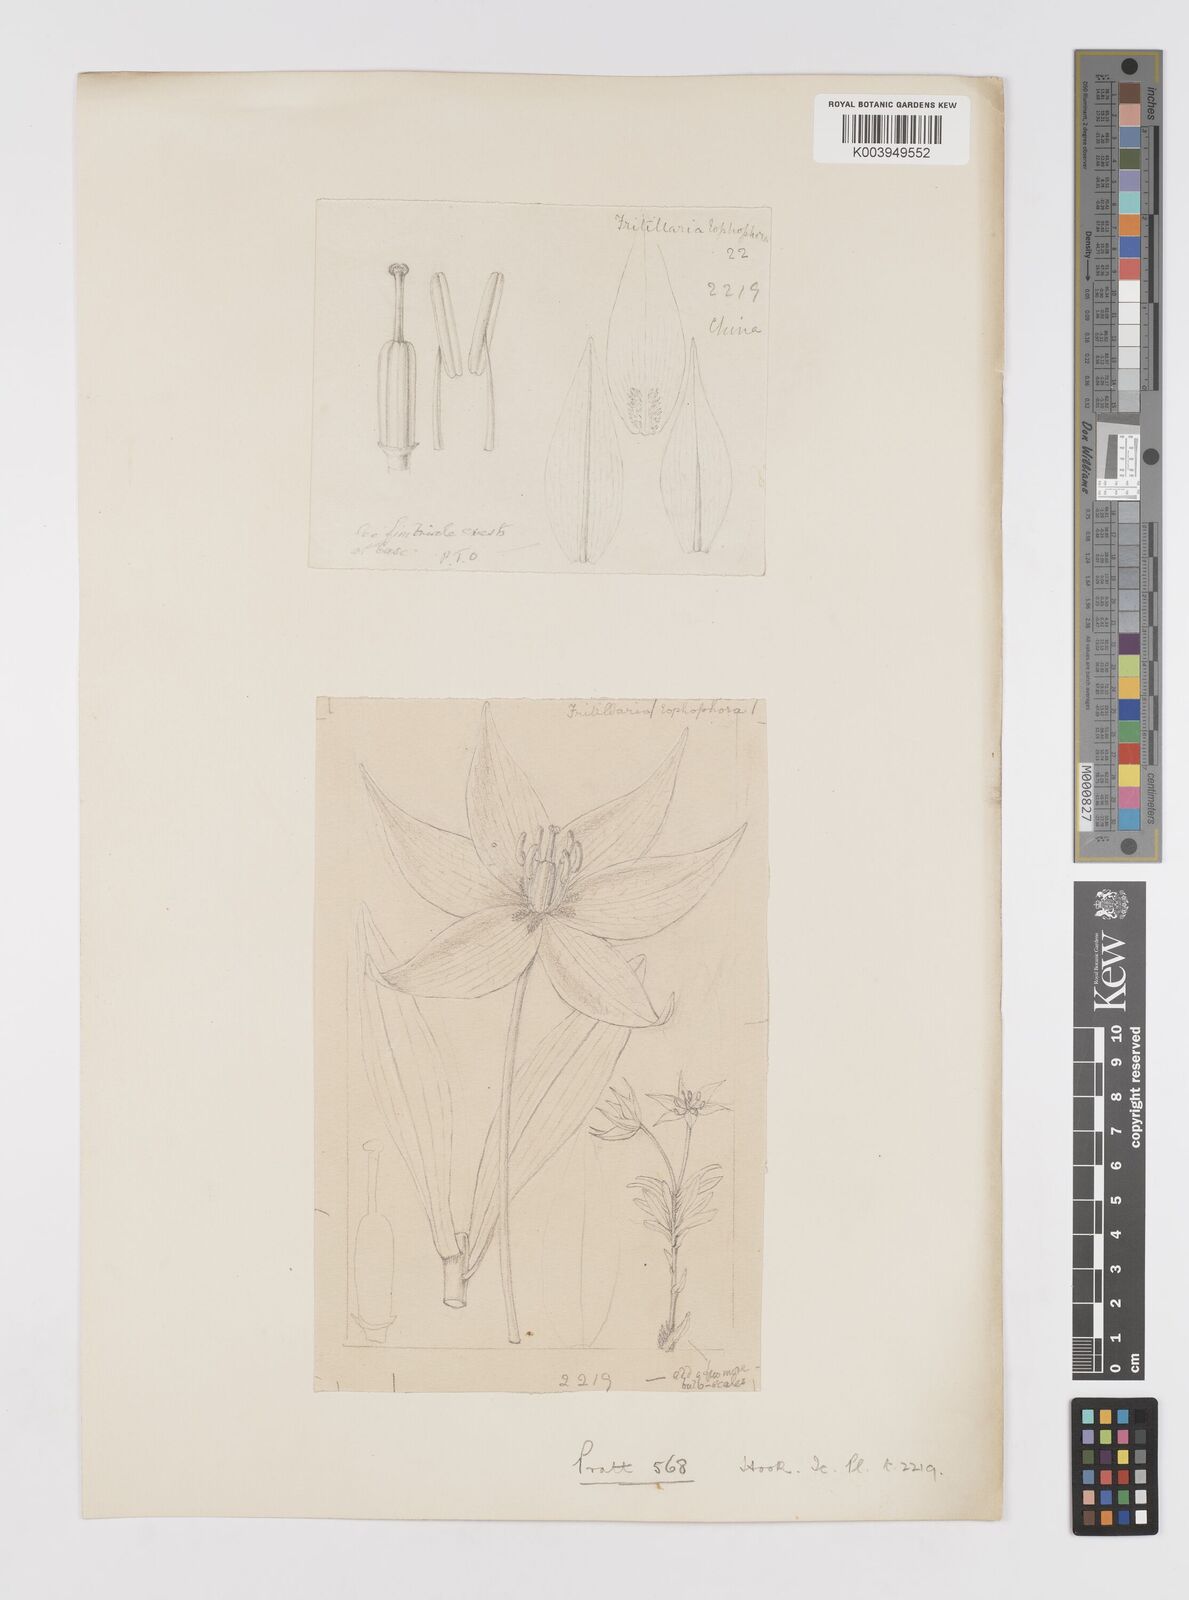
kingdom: Plantae
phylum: Tracheophyta
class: Liliopsida
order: Liliales
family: Liliaceae
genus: Lilium
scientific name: Lilium lophophorum
